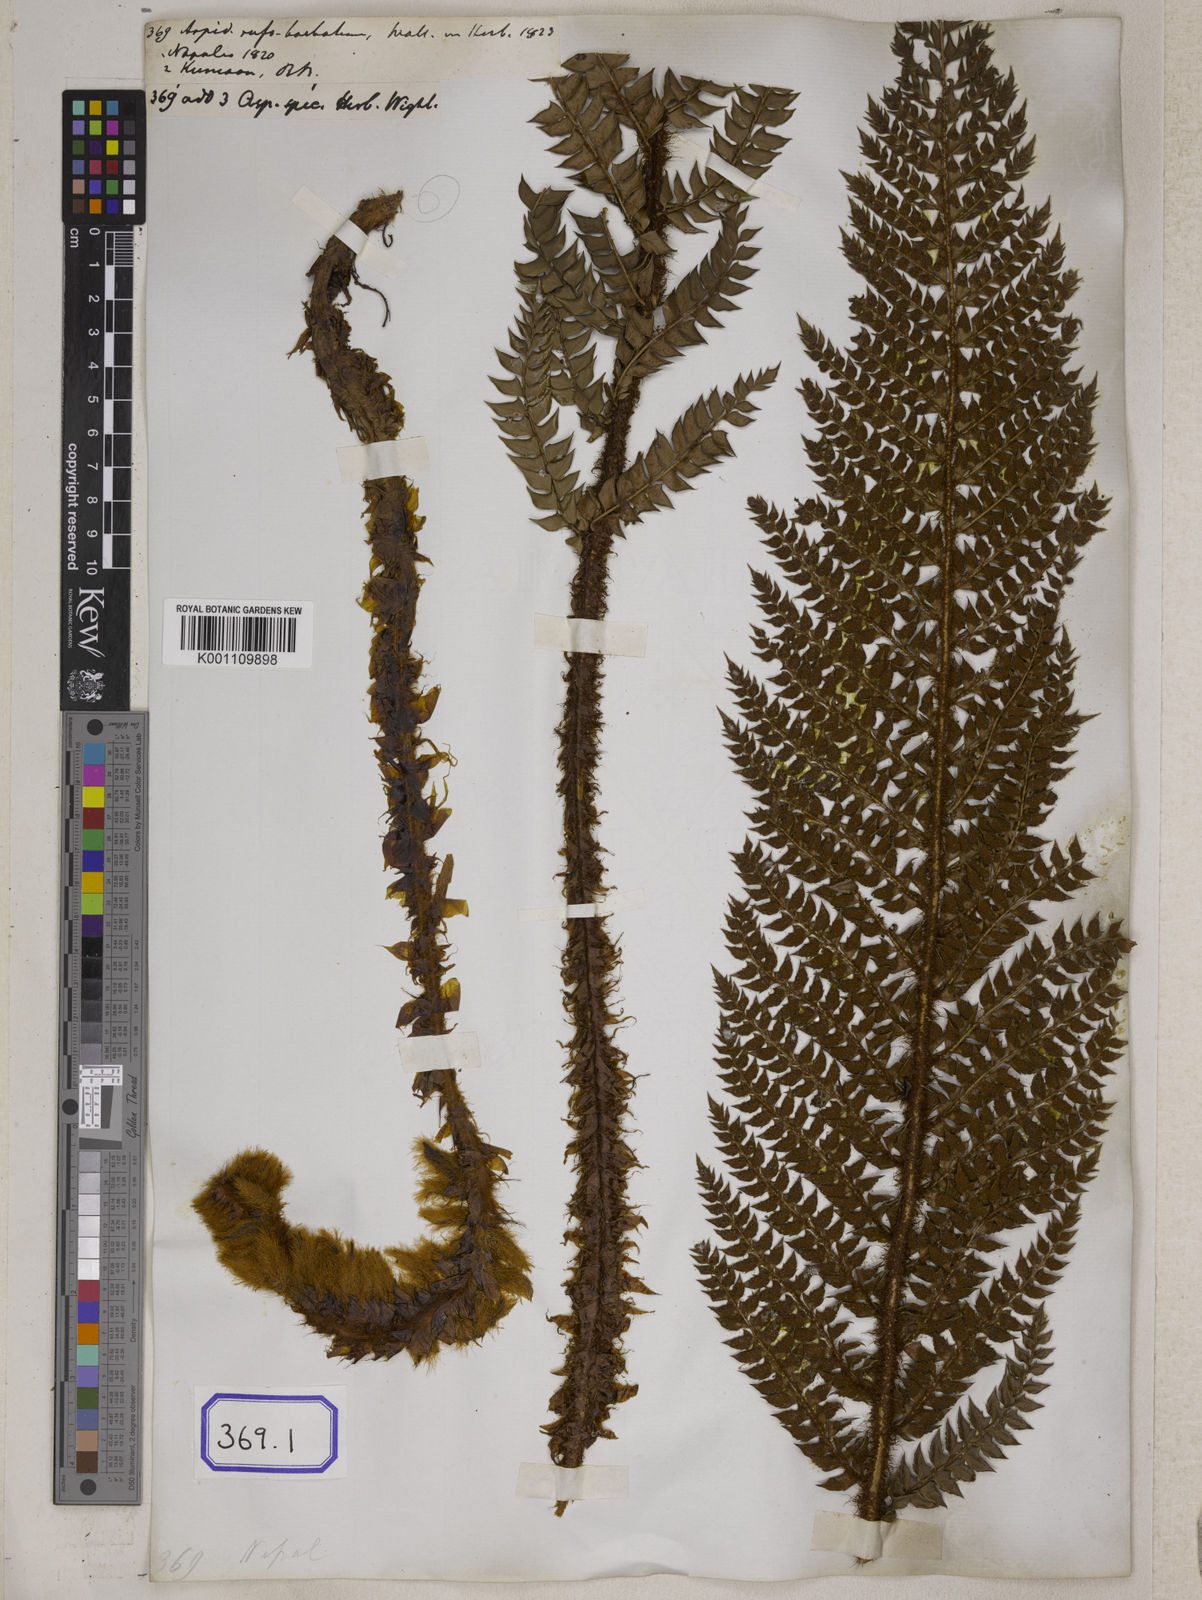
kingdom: Plantae
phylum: Tracheophyta
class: Polypodiopsida
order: Polypodiales
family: Dryopteridaceae
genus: Polystichum
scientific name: Polystichum squarrosum
